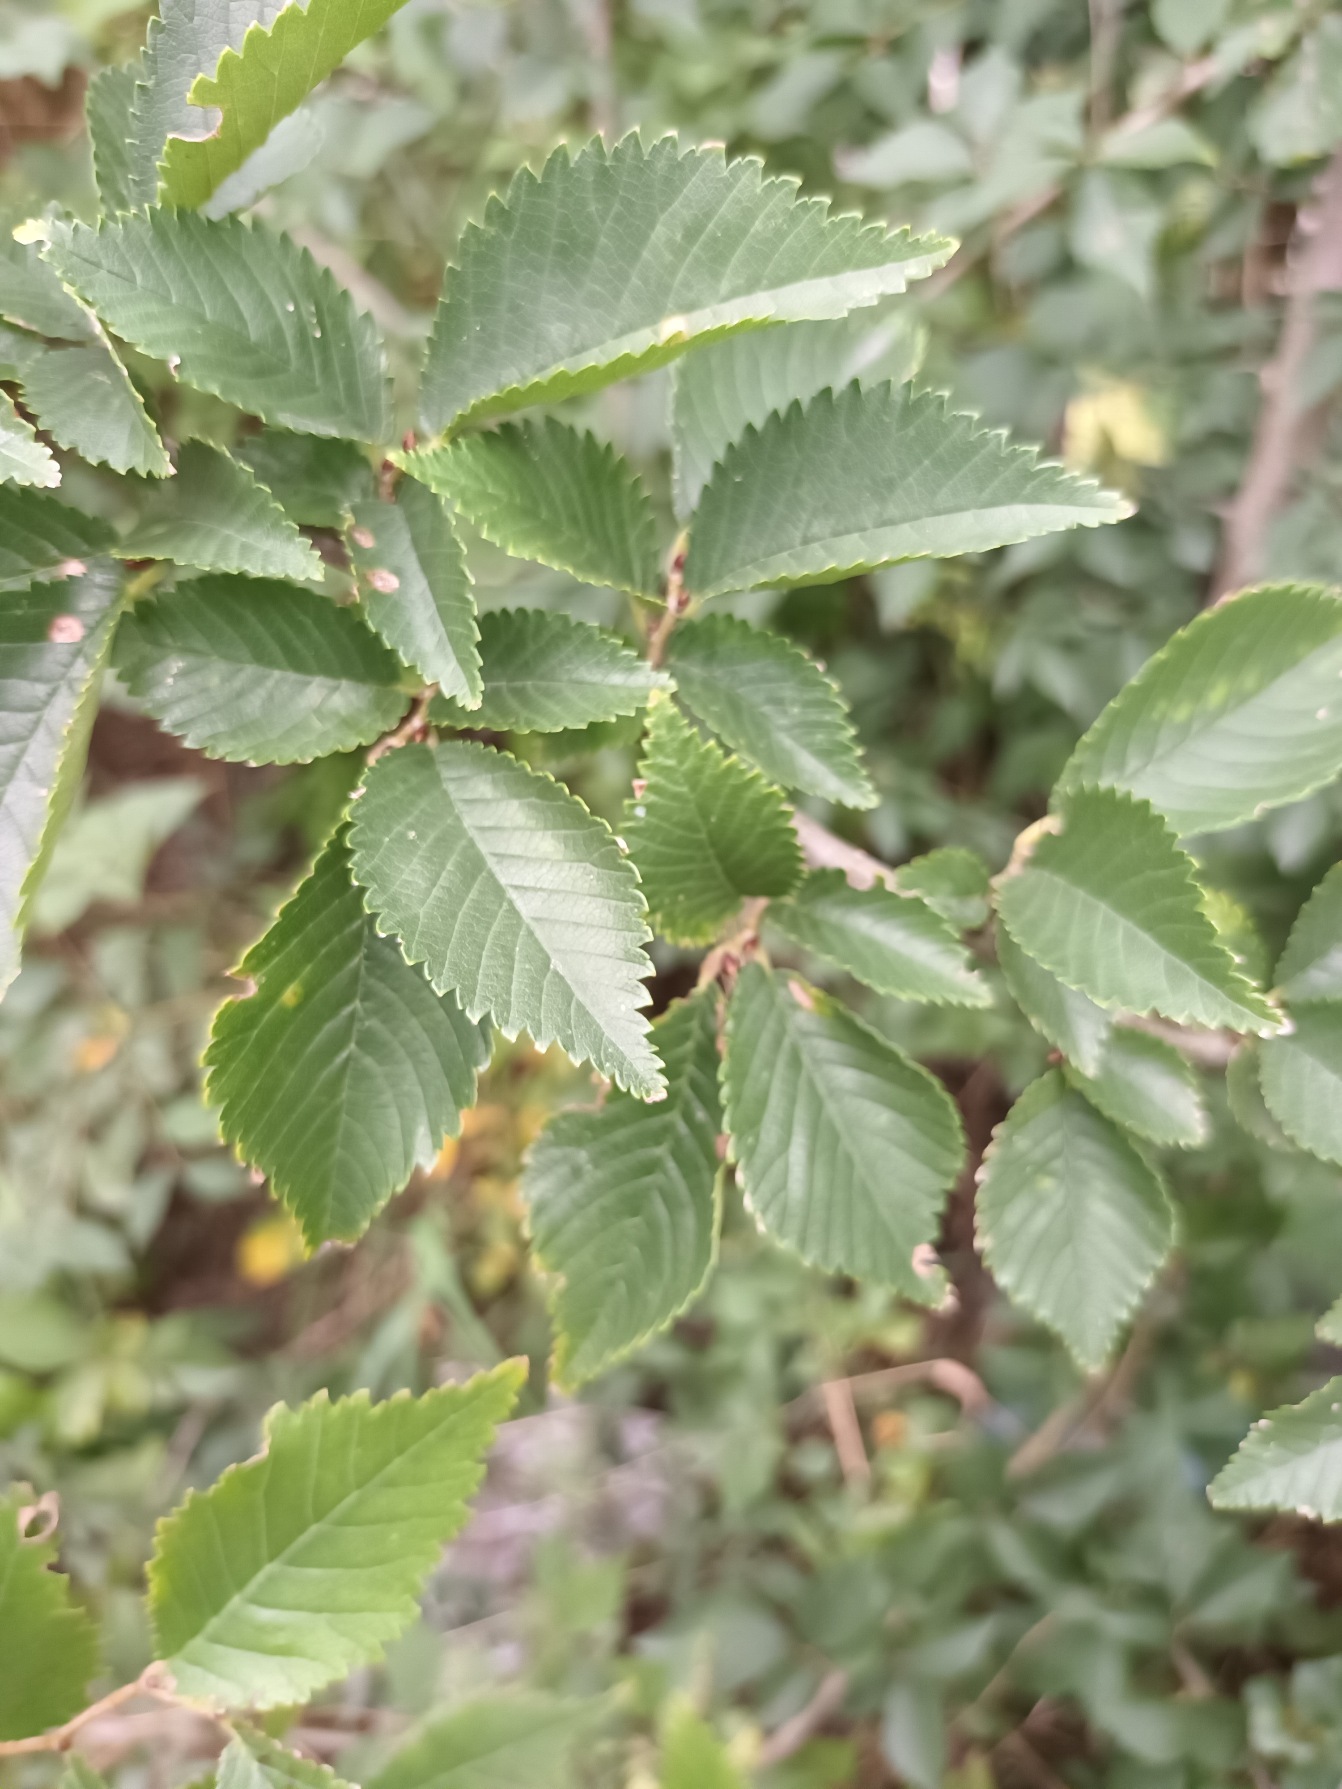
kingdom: Plantae
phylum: Tracheophyta
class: Magnoliopsida
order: Rosales
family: Ulmaceae
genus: Ulmus
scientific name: Ulmus minor
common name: Småbladet elm
